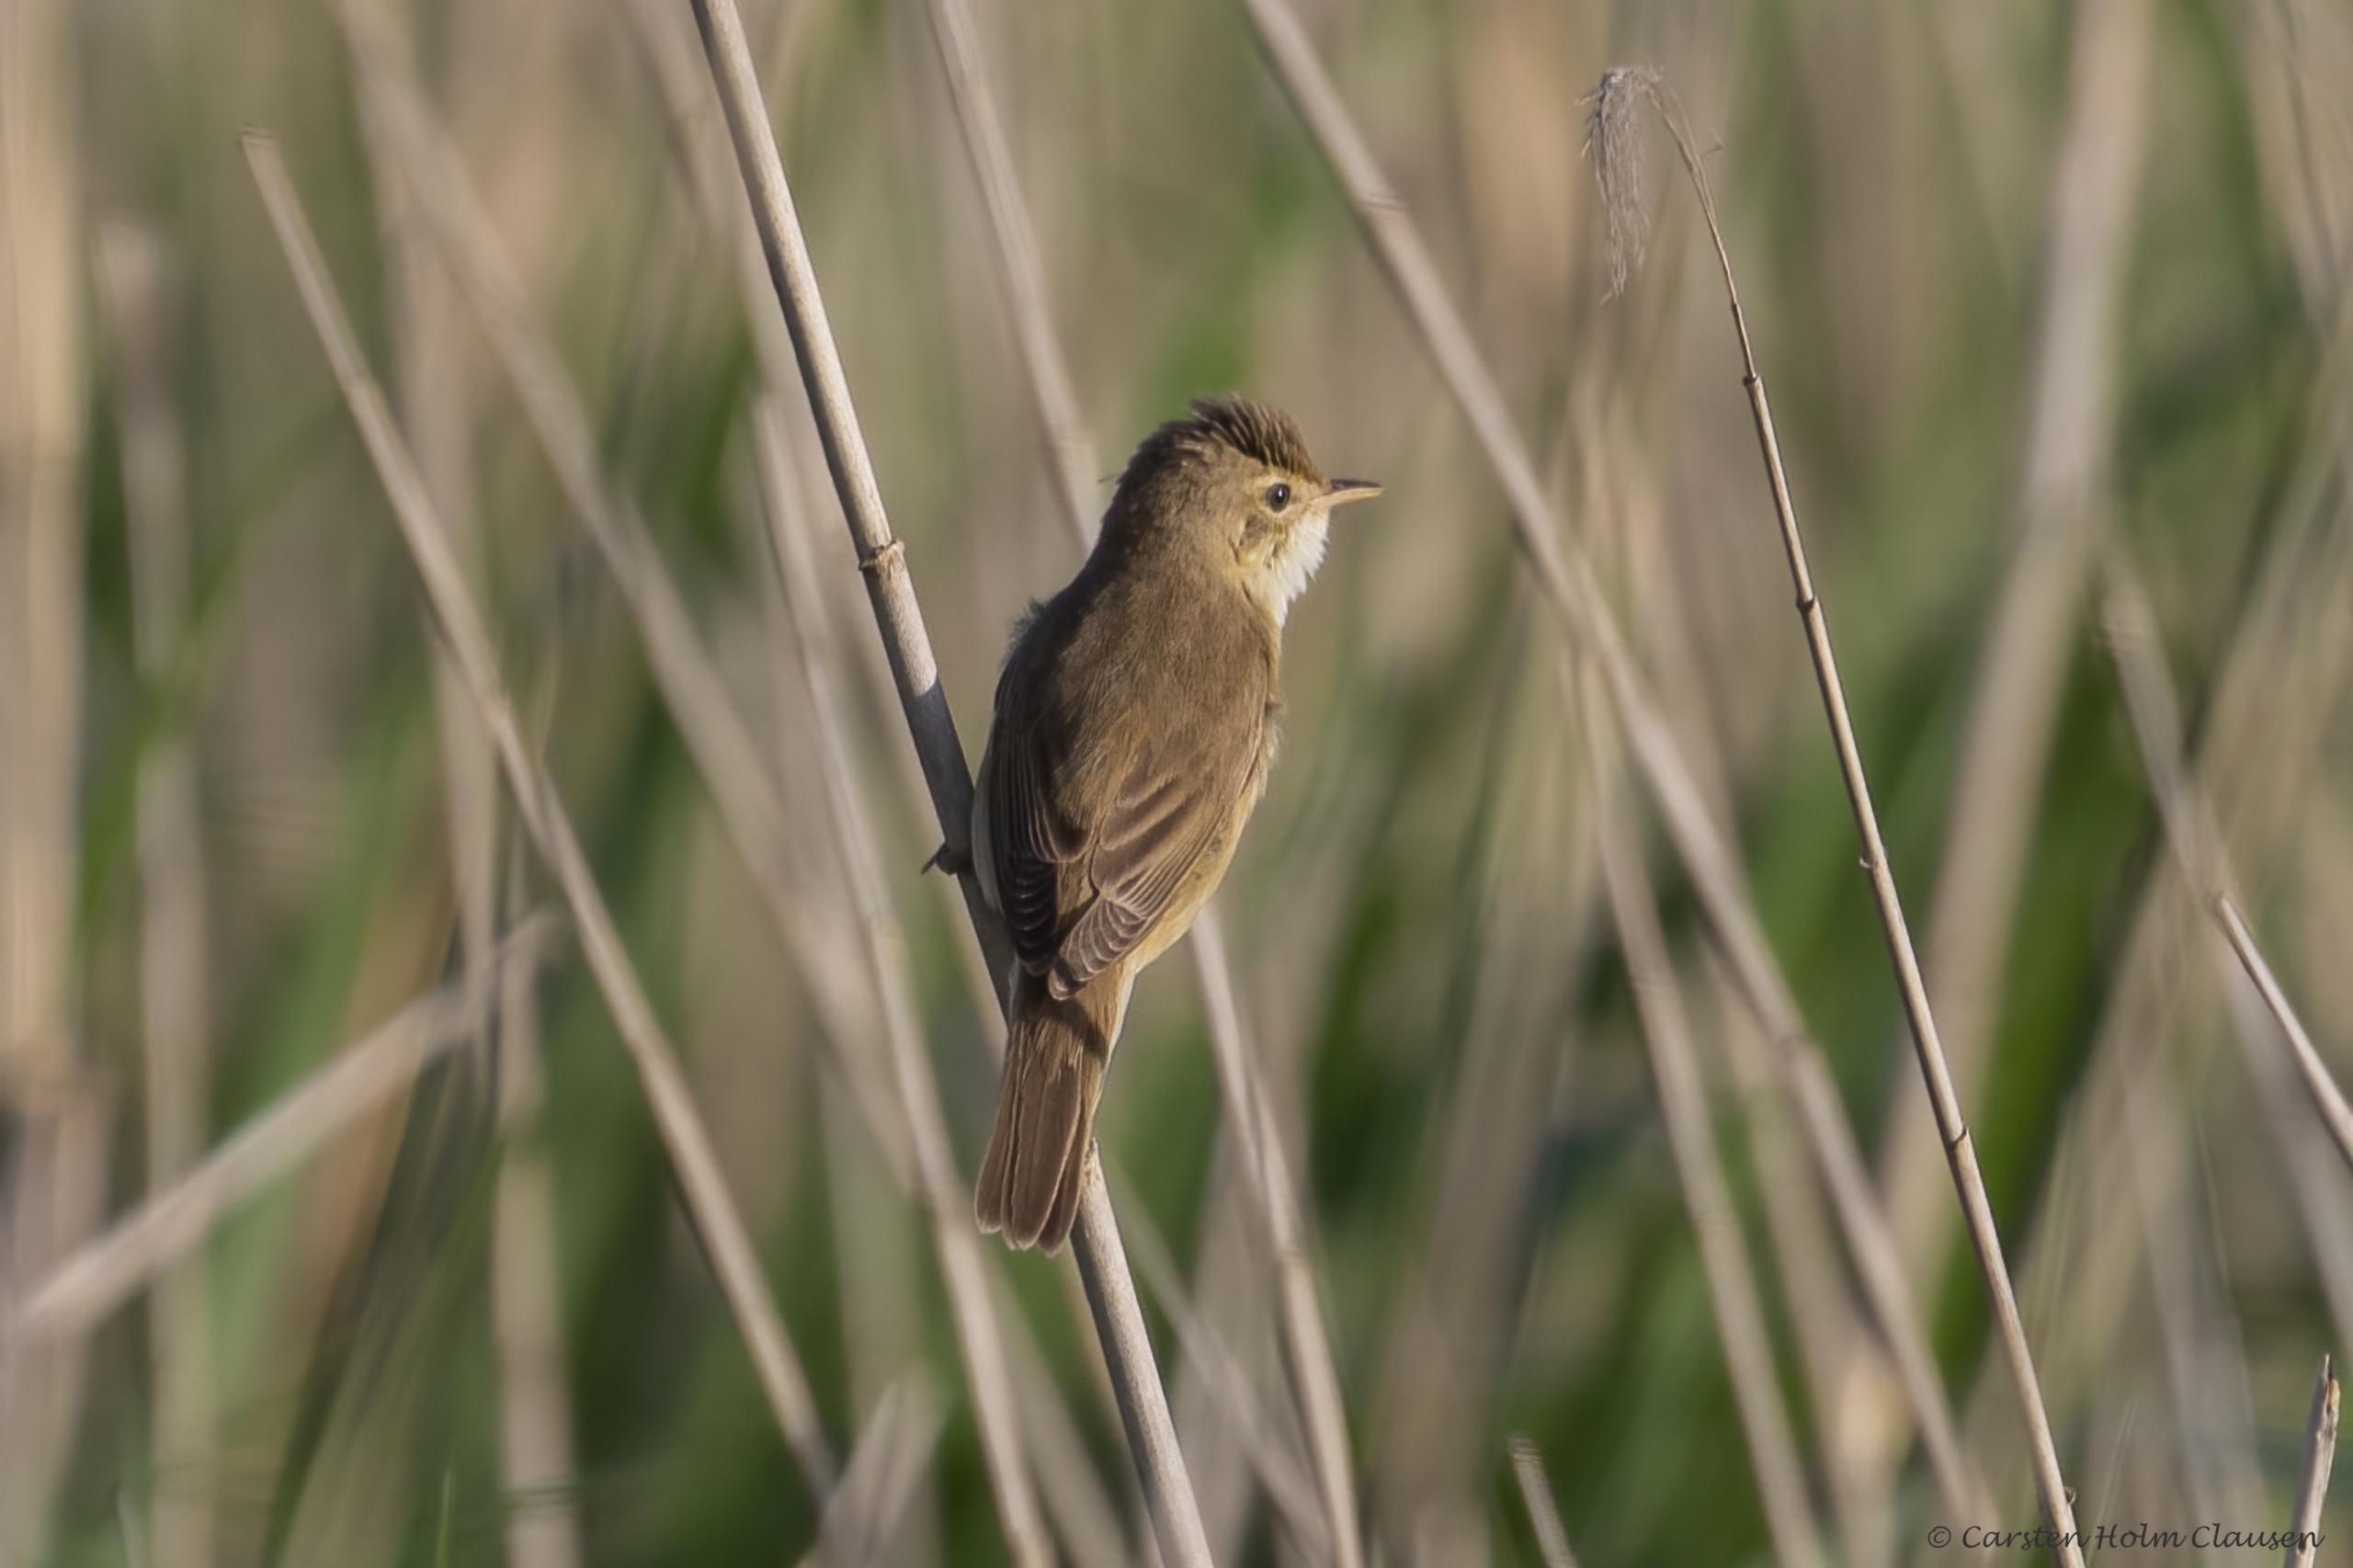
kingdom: Animalia
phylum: Chordata
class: Aves
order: Passeriformes
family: Acrocephalidae
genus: Acrocephalus
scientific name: Acrocephalus scirpaceus
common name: Rørsanger
